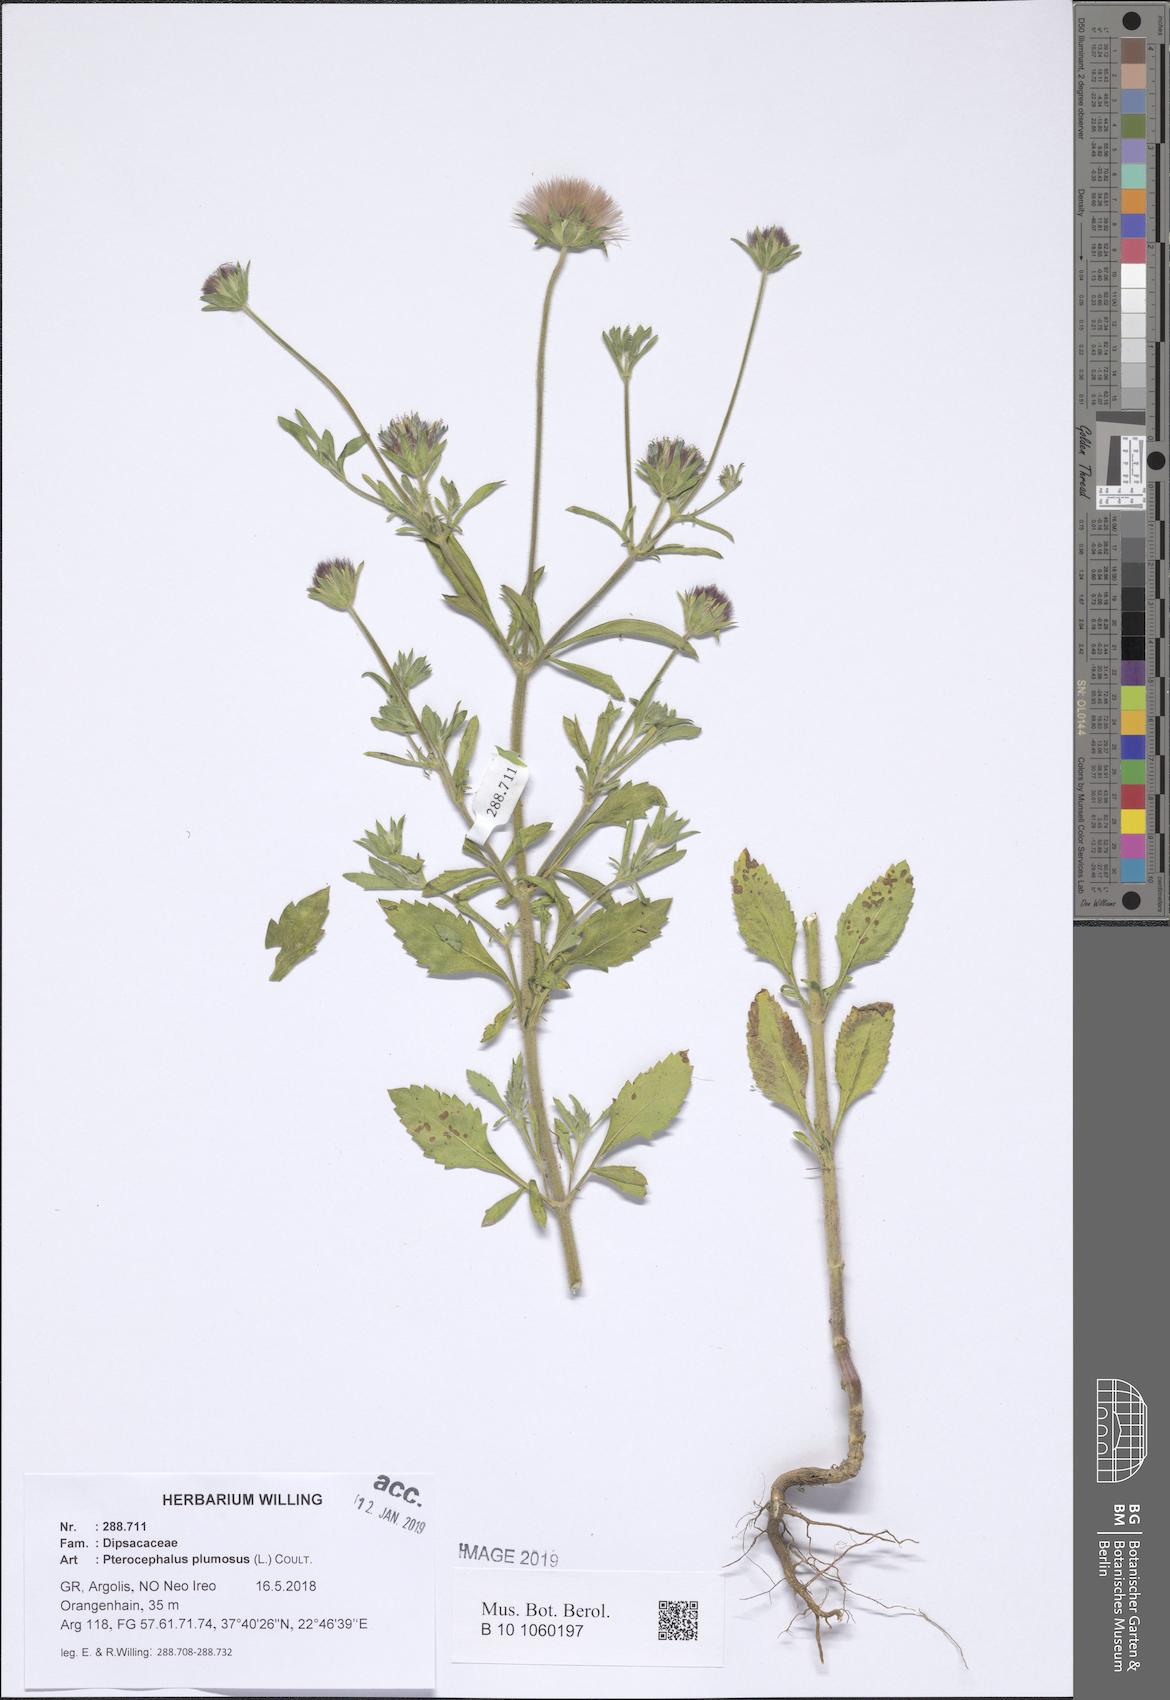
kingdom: Plantae
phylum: Tracheophyta
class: Magnoliopsida
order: Dipsacales
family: Caprifoliaceae
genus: Pterocephalus
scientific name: Pterocephalus plumosus
